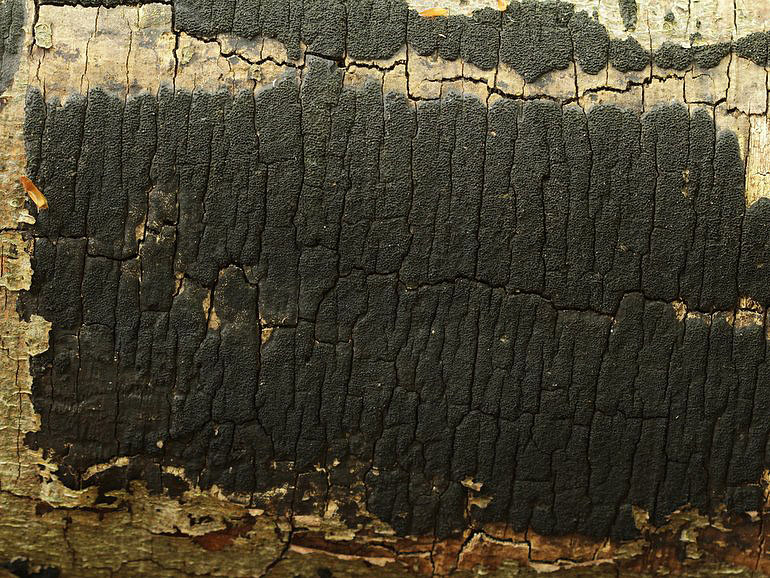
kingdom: Fungi
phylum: Ascomycota
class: Sordariomycetes
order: Xylariales
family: Diatrypaceae
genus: Eutypa
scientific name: Eutypa spinosa
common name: grov kulskorpe
